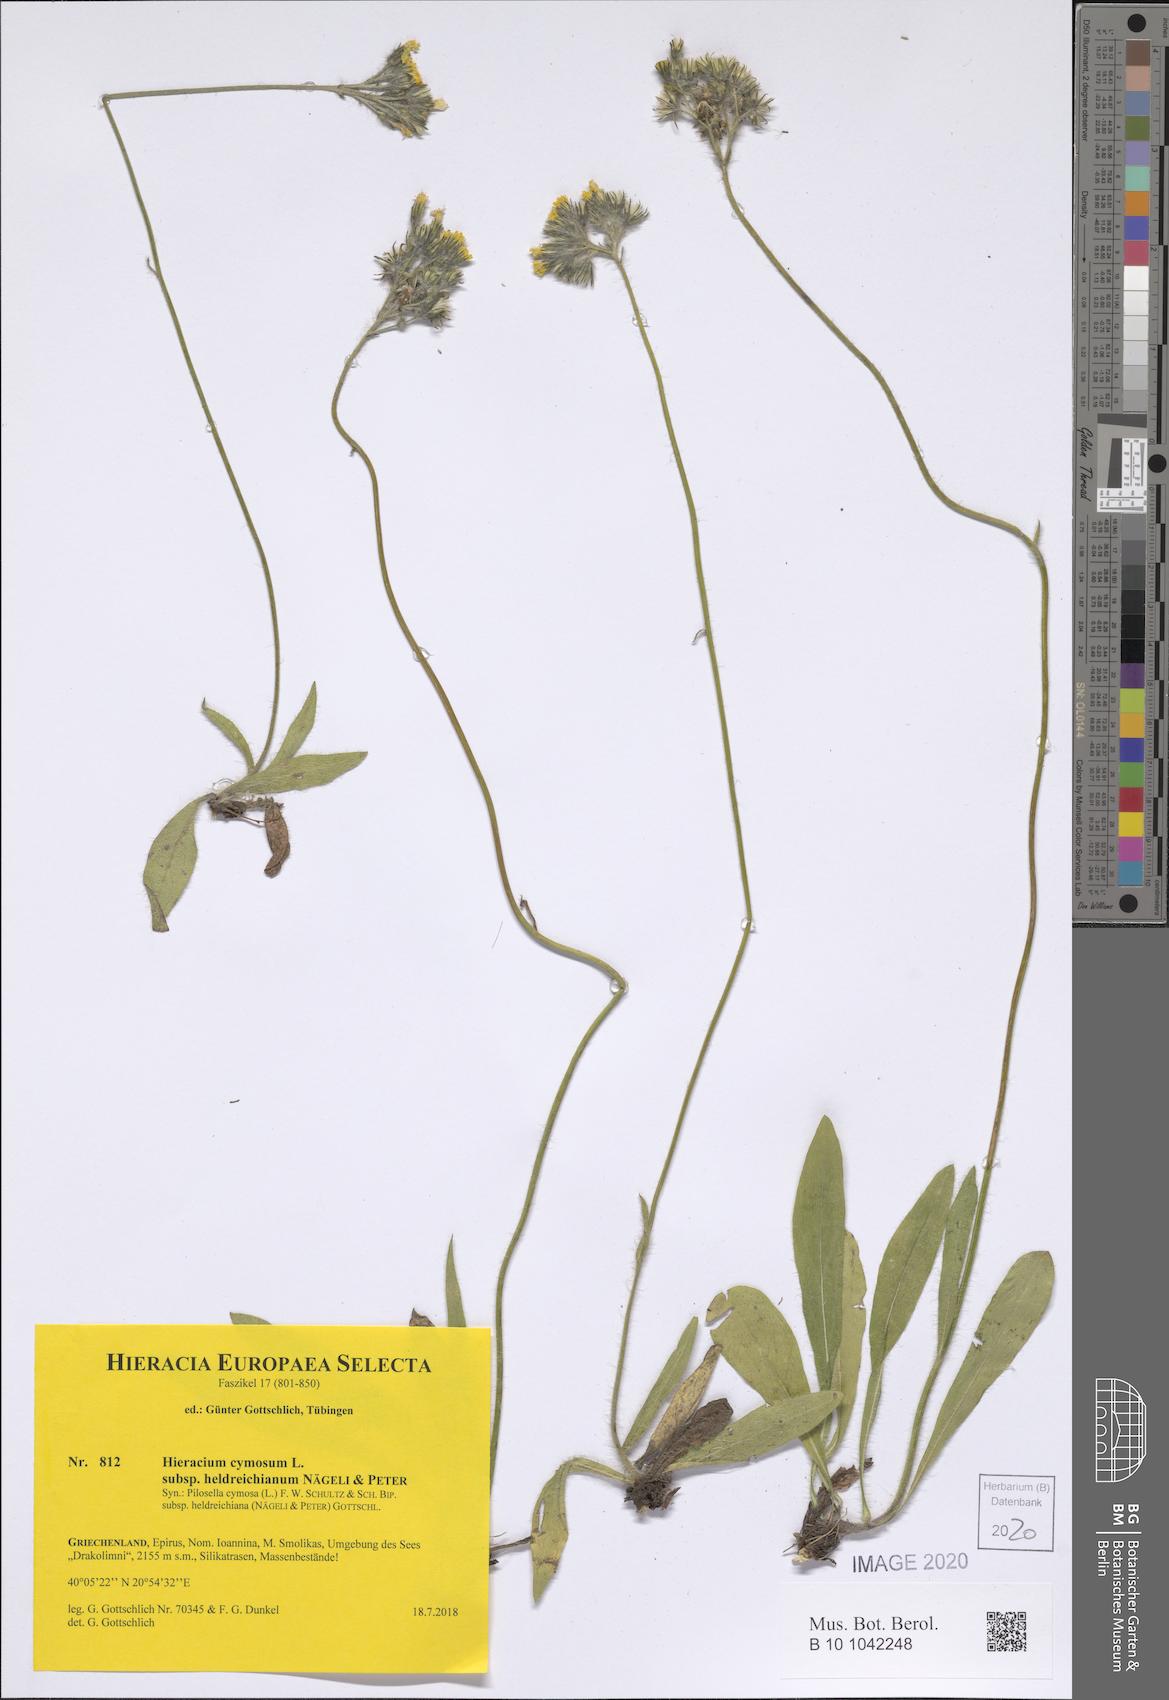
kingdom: Plantae
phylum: Tracheophyta
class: Magnoliopsida
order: Asterales
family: Asteraceae
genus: Pilosella
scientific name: Pilosella cymosa
